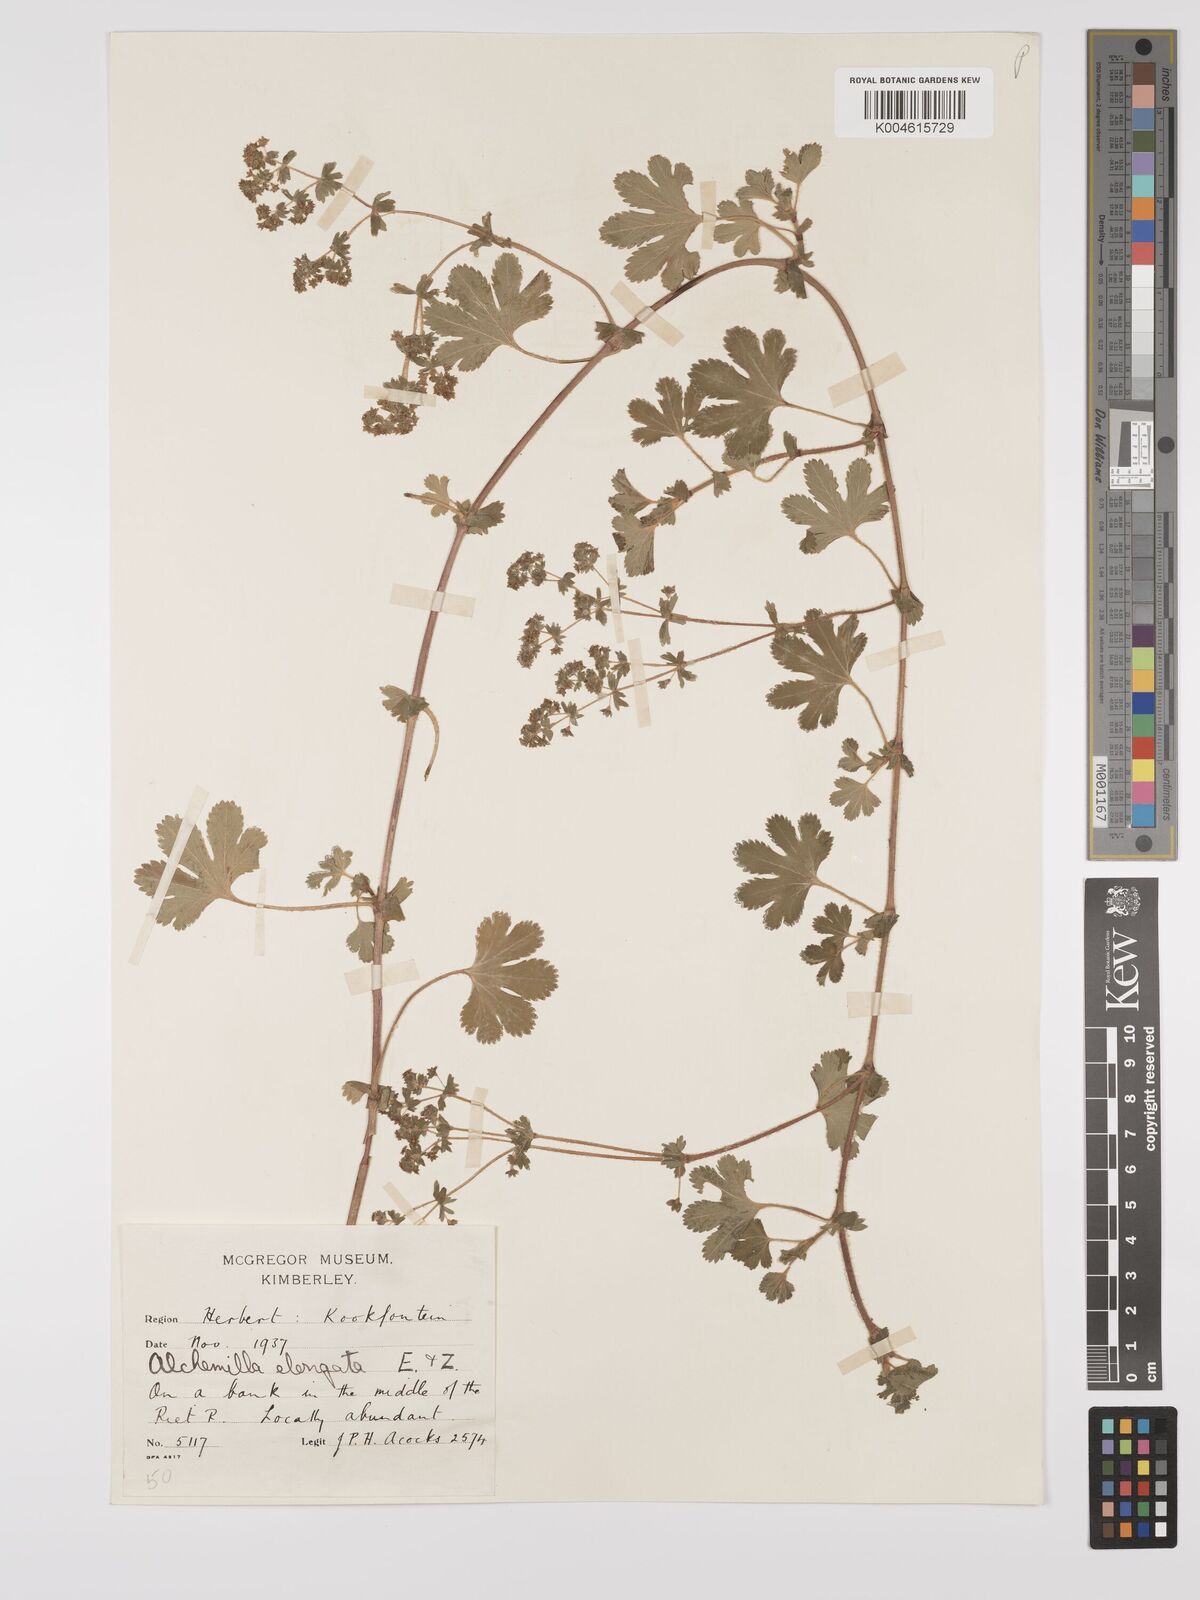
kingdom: Plantae
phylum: Tracheophyta
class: Magnoliopsida
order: Rosales
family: Rosaceae
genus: Alchemilla
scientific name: Alchemilla elongata
